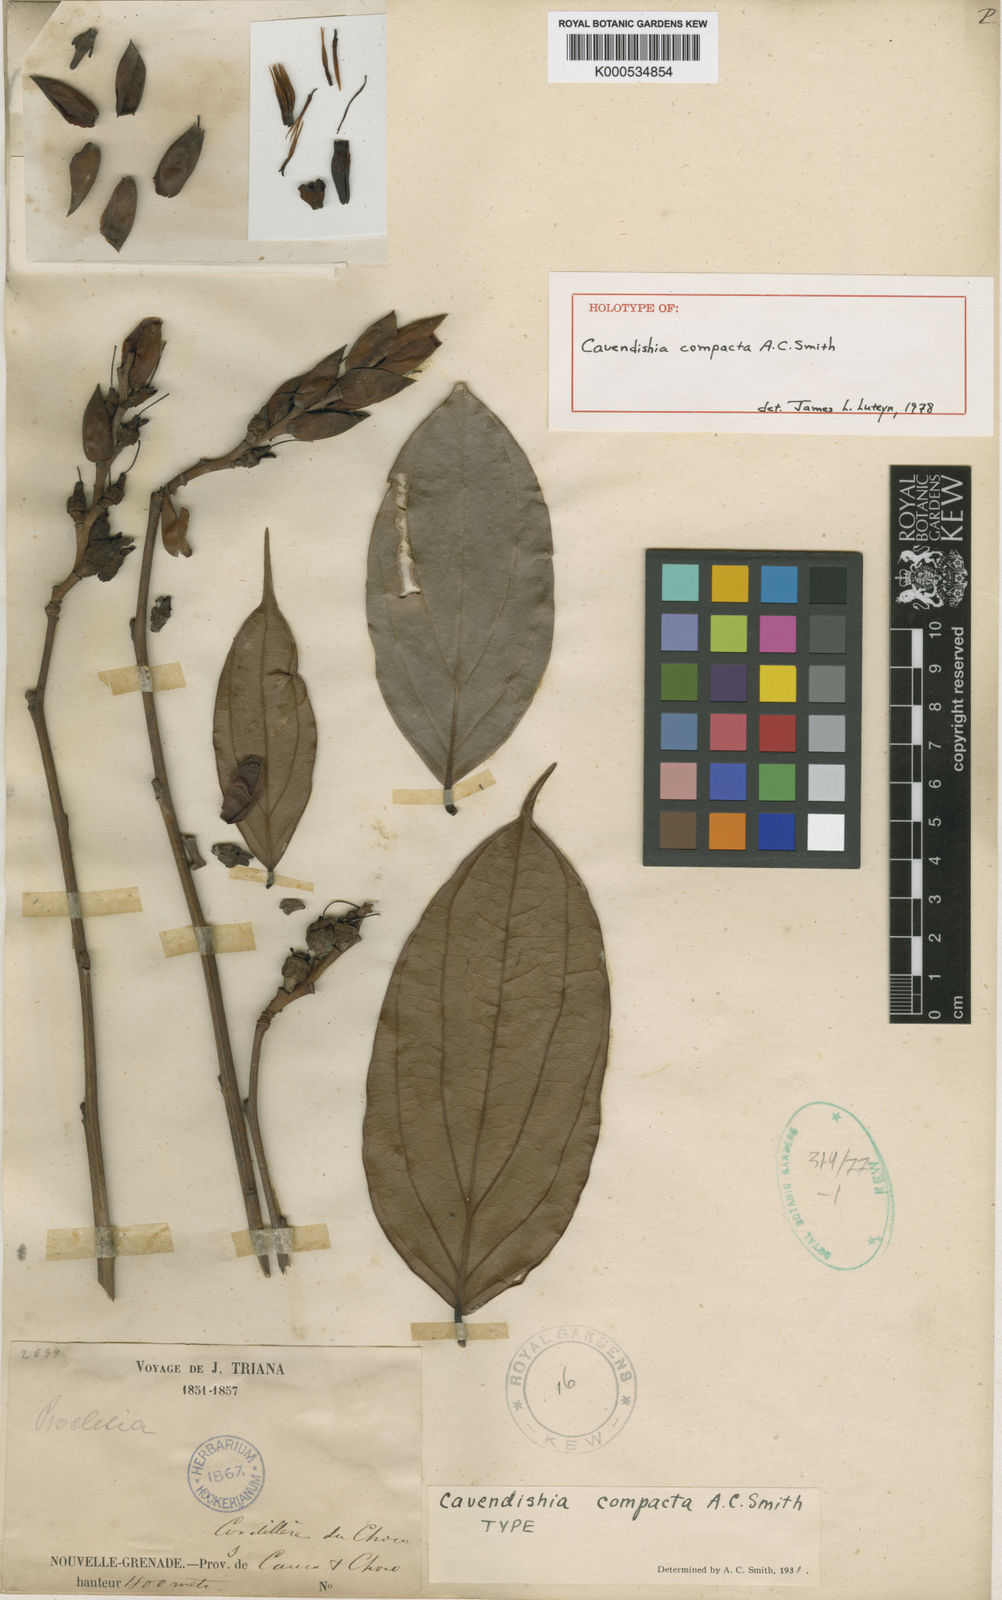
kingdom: Plantae
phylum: Tracheophyta
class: Magnoliopsida
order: Ericales
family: Ericaceae
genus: Cavendishia
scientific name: Cavendishia compacta
